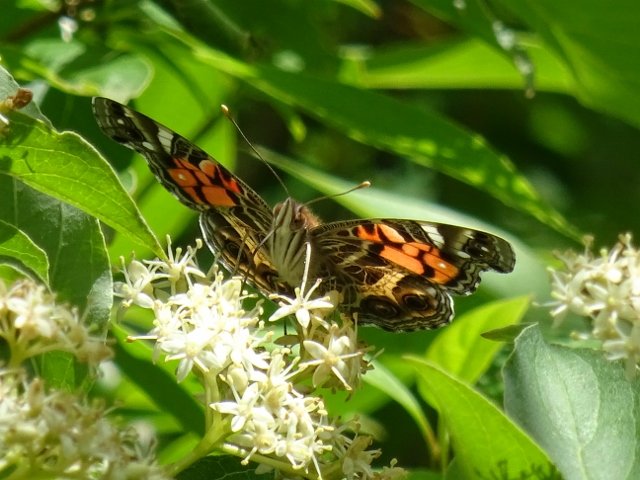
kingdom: Animalia
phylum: Arthropoda
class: Insecta
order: Lepidoptera
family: Nymphalidae
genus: Vanessa
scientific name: Vanessa virginiensis
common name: American Lady
